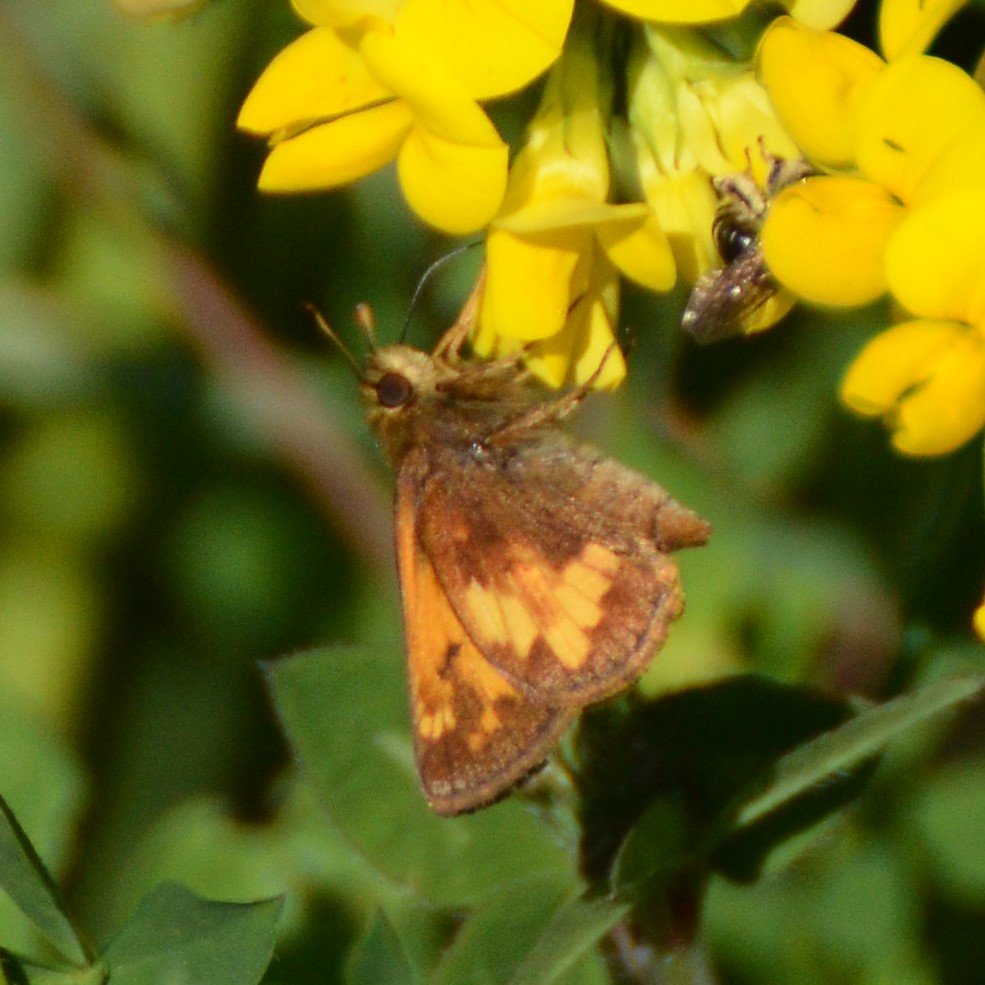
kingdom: Animalia
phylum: Arthropoda
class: Insecta
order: Lepidoptera
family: Hesperiidae
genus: Lon
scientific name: Lon hobomok
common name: Hobomok Skipper
